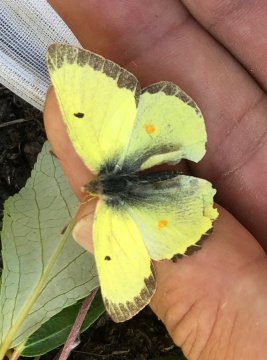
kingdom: Animalia
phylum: Arthropoda
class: Insecta
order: Lepidoptera
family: Pieridae
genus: Colias
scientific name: Colias gigantea
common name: Giant Sulphur
